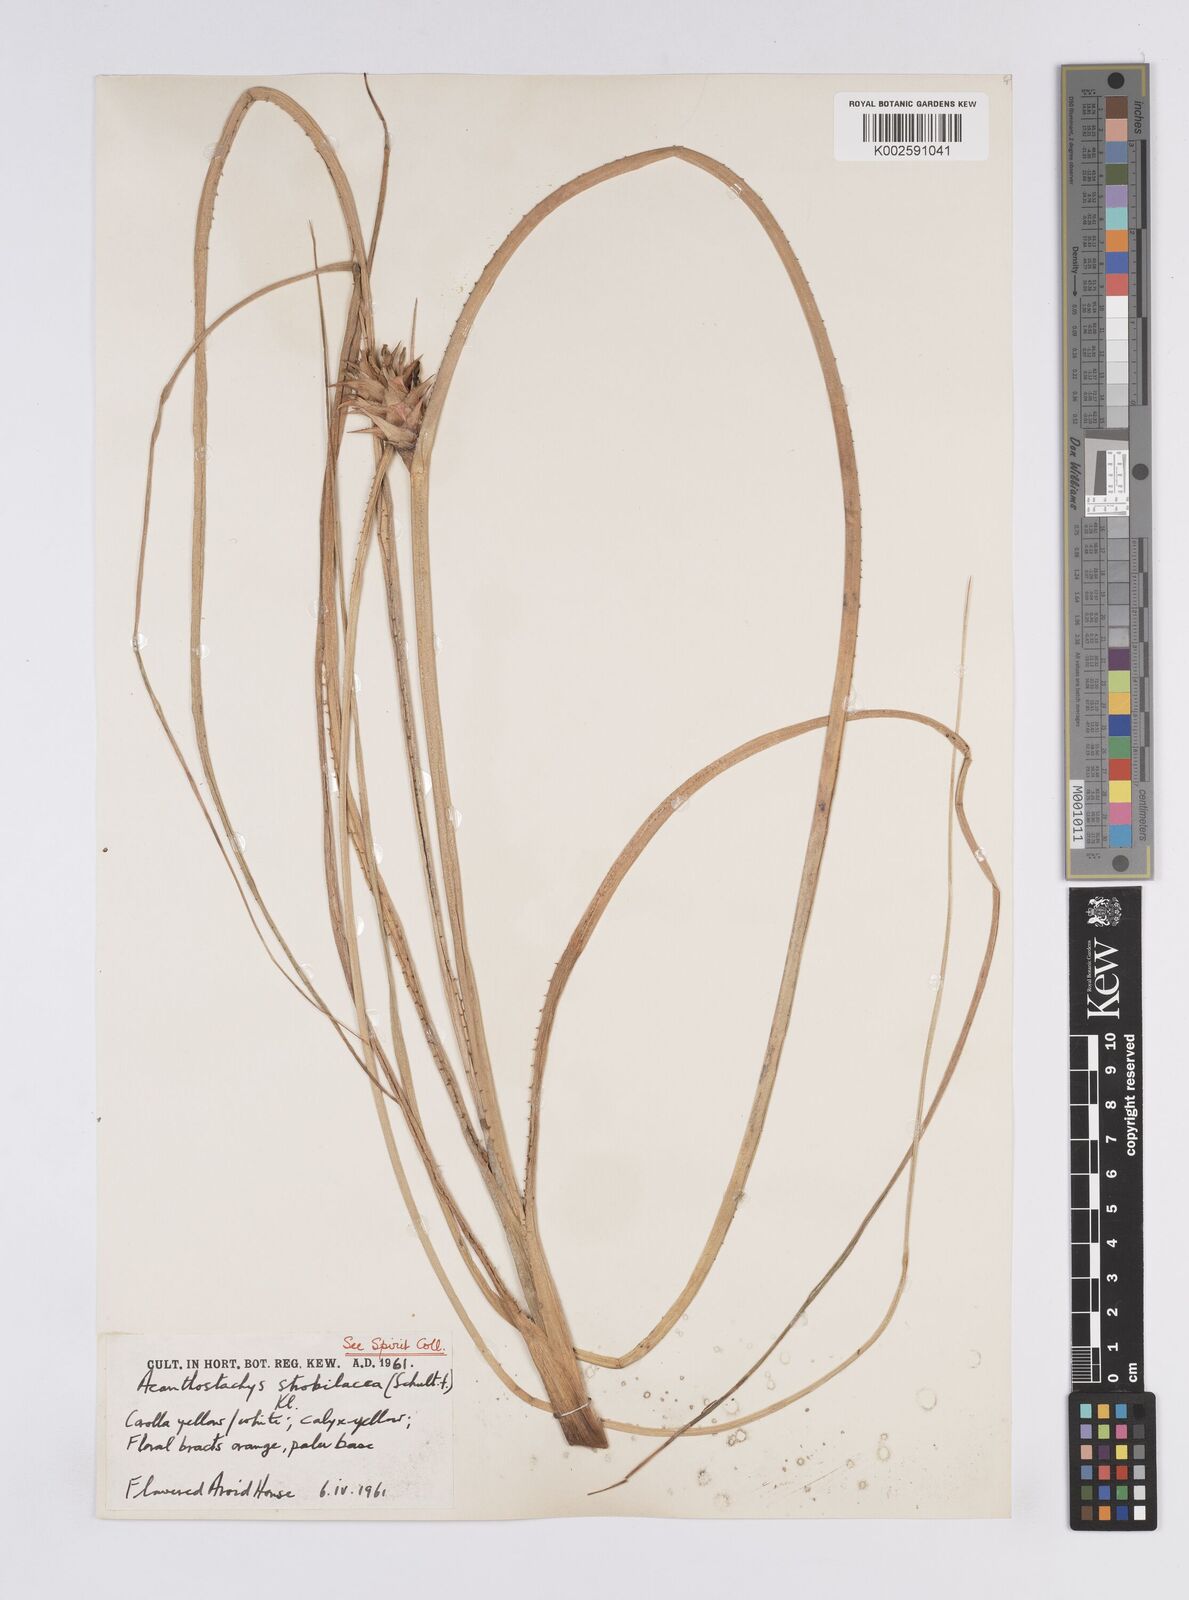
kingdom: Plantae
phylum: Tracheophyta
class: Liliopsida
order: Poales
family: Bromeliaceae
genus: Acanthostachys
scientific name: Acanthostachys strobilacea
